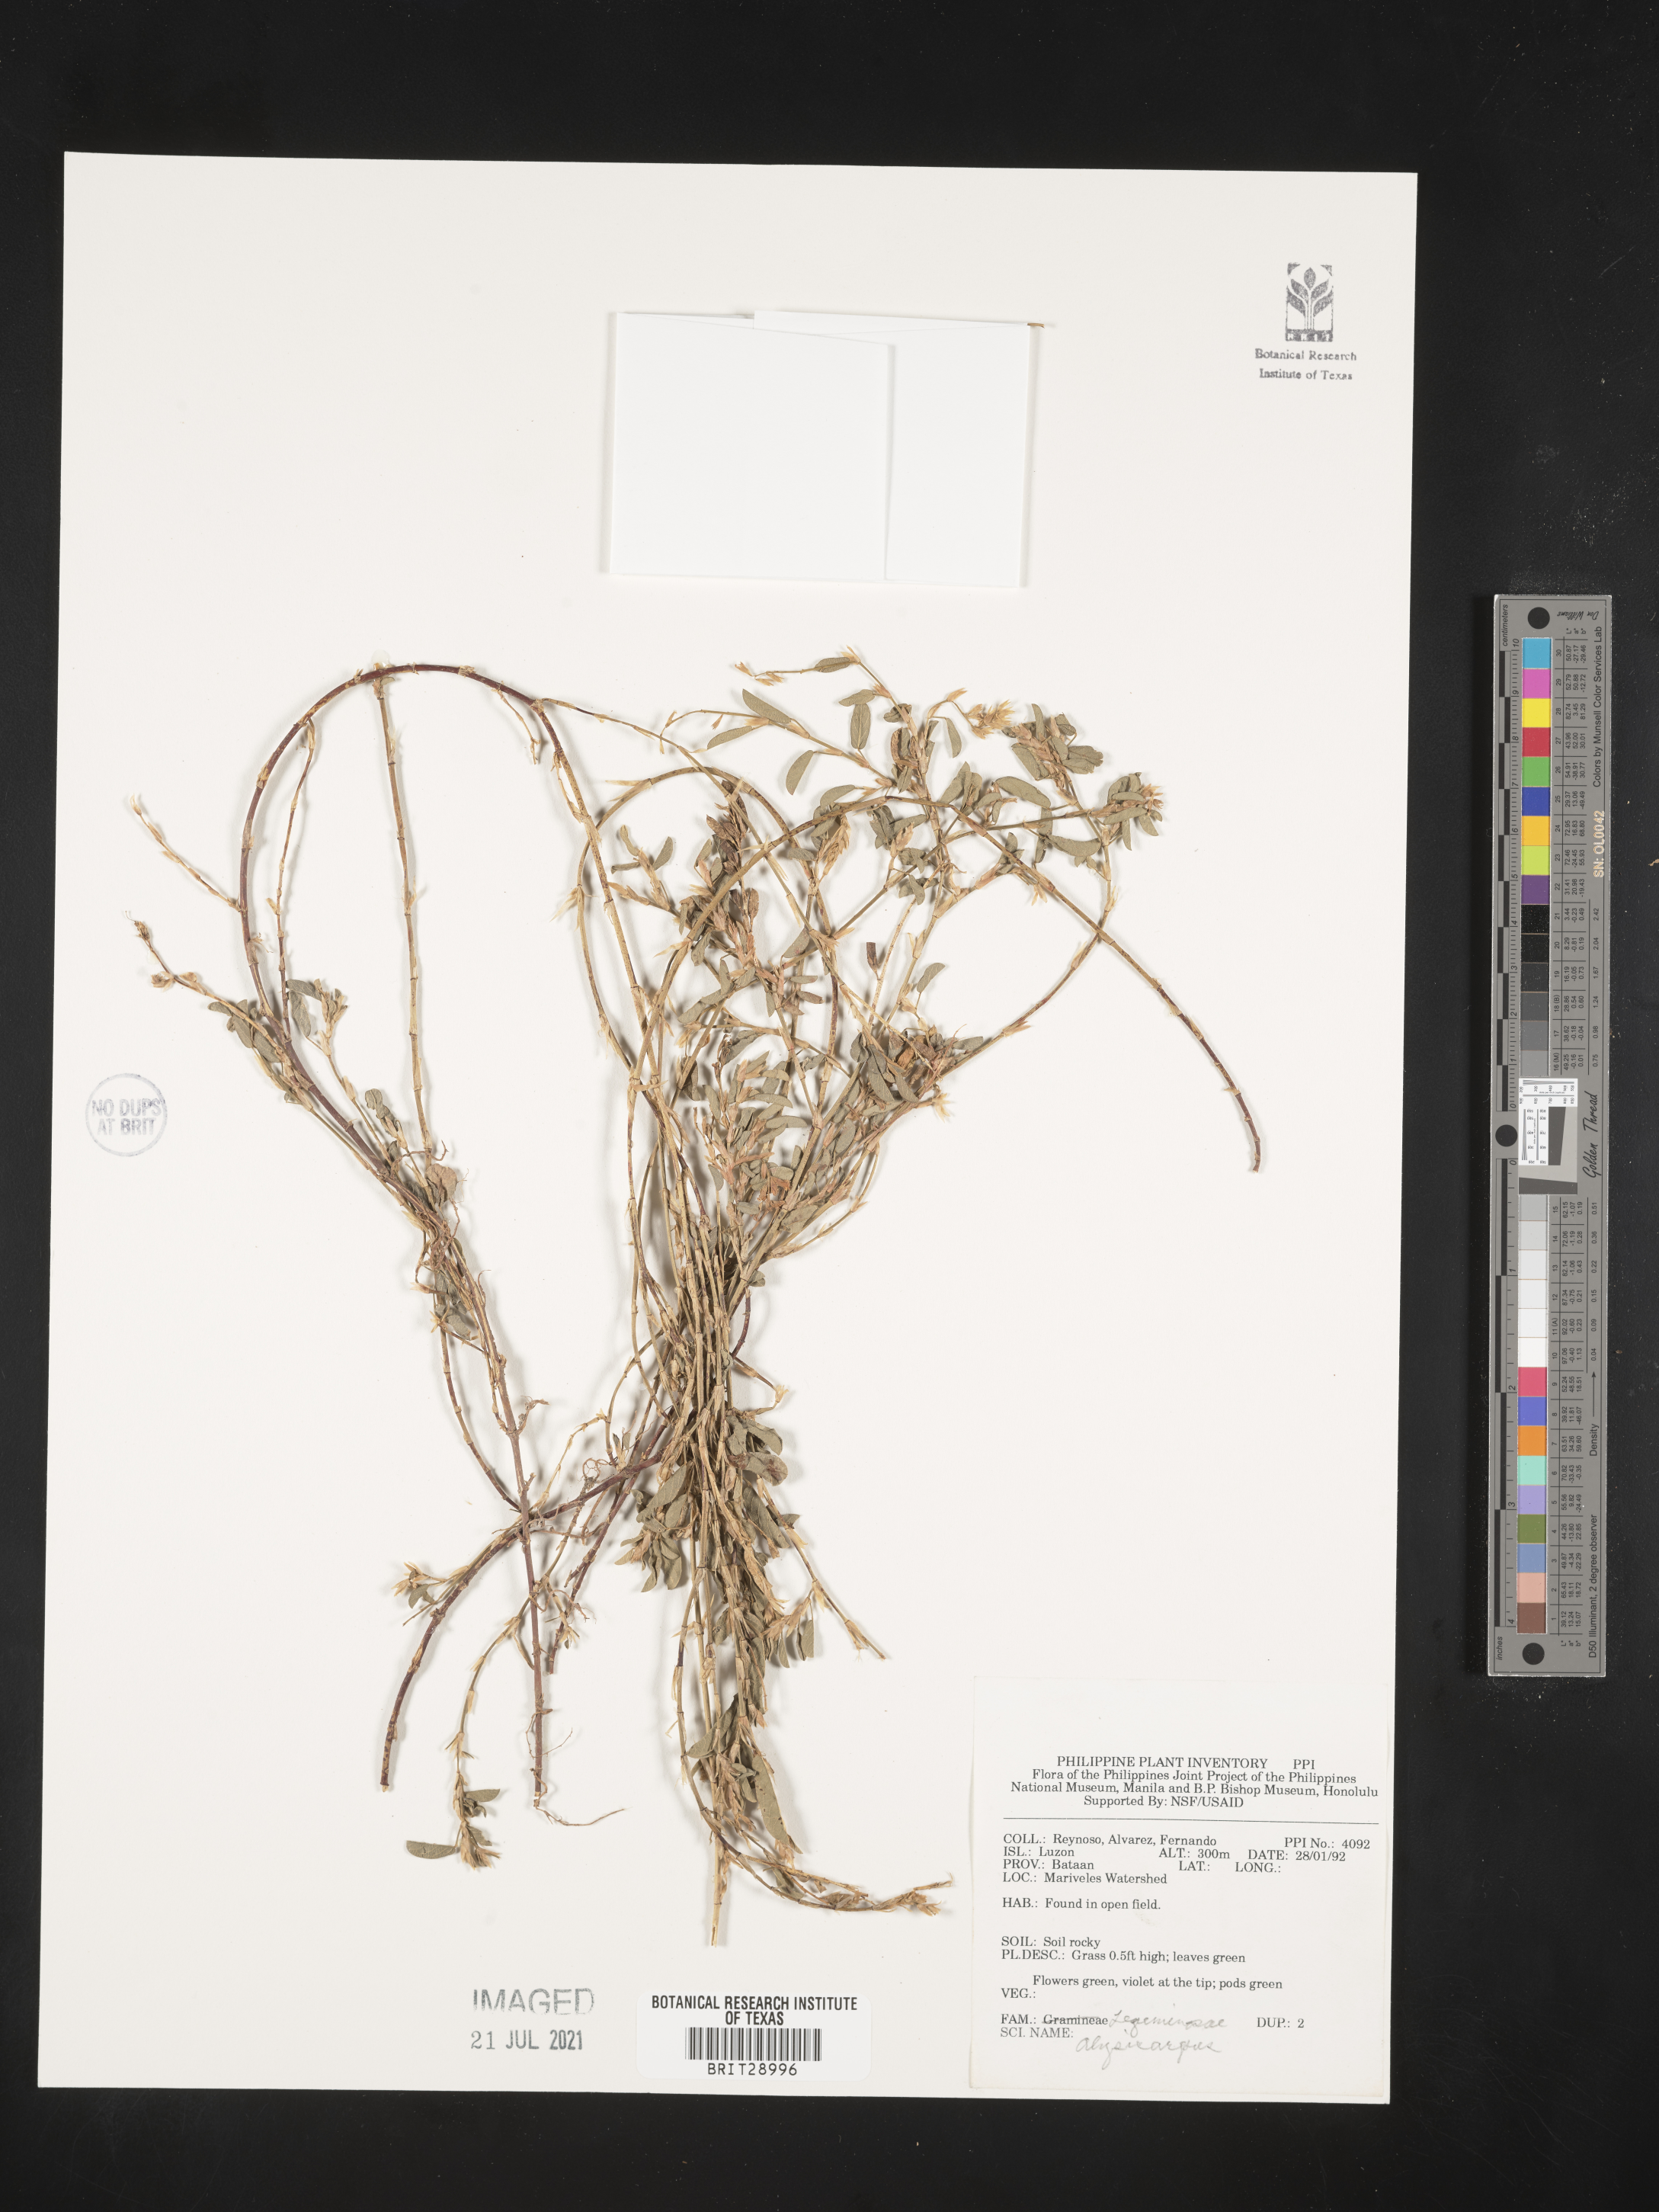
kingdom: Plantae
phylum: Tracheophyta
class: Magnoliopsida
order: Fabales
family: Fabaceae
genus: Alysicarpus
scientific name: Alysicarpus
